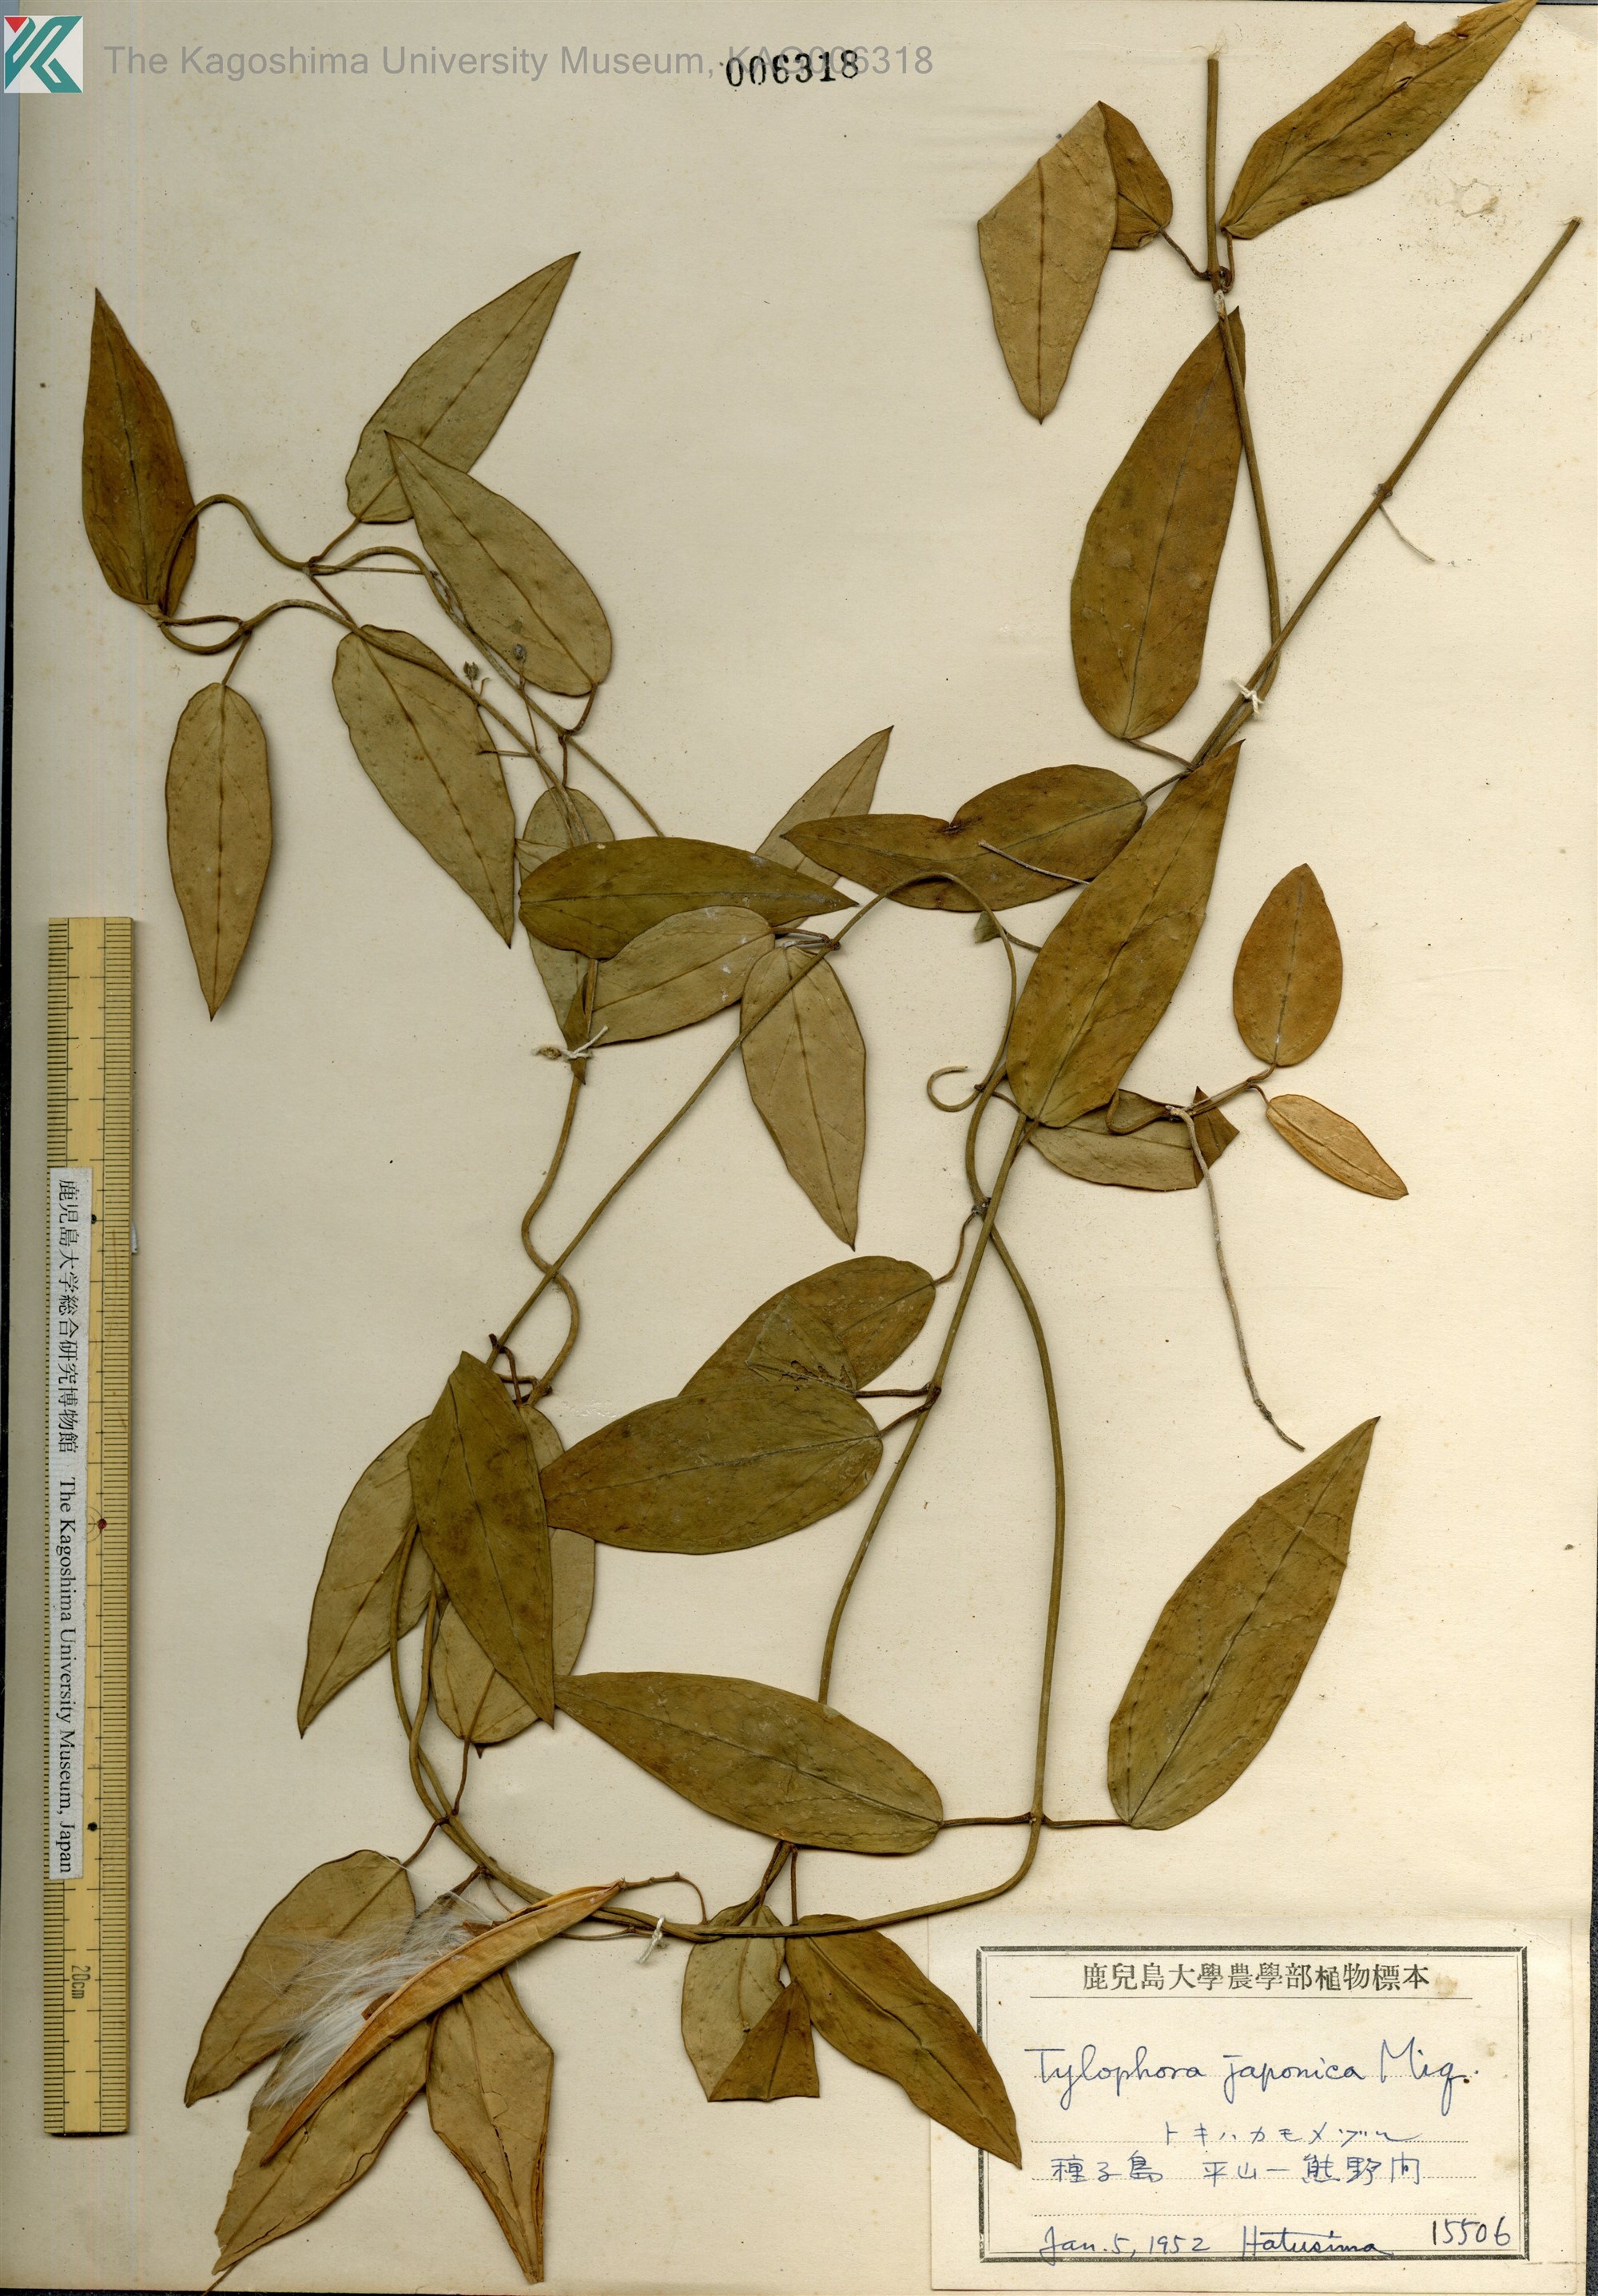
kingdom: Plantae
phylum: Tracheophyta
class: Magnoliopsida
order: Gentianales
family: Apocynaceae
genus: Vincetoxicum
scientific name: Vincetoxicum sieboldii
